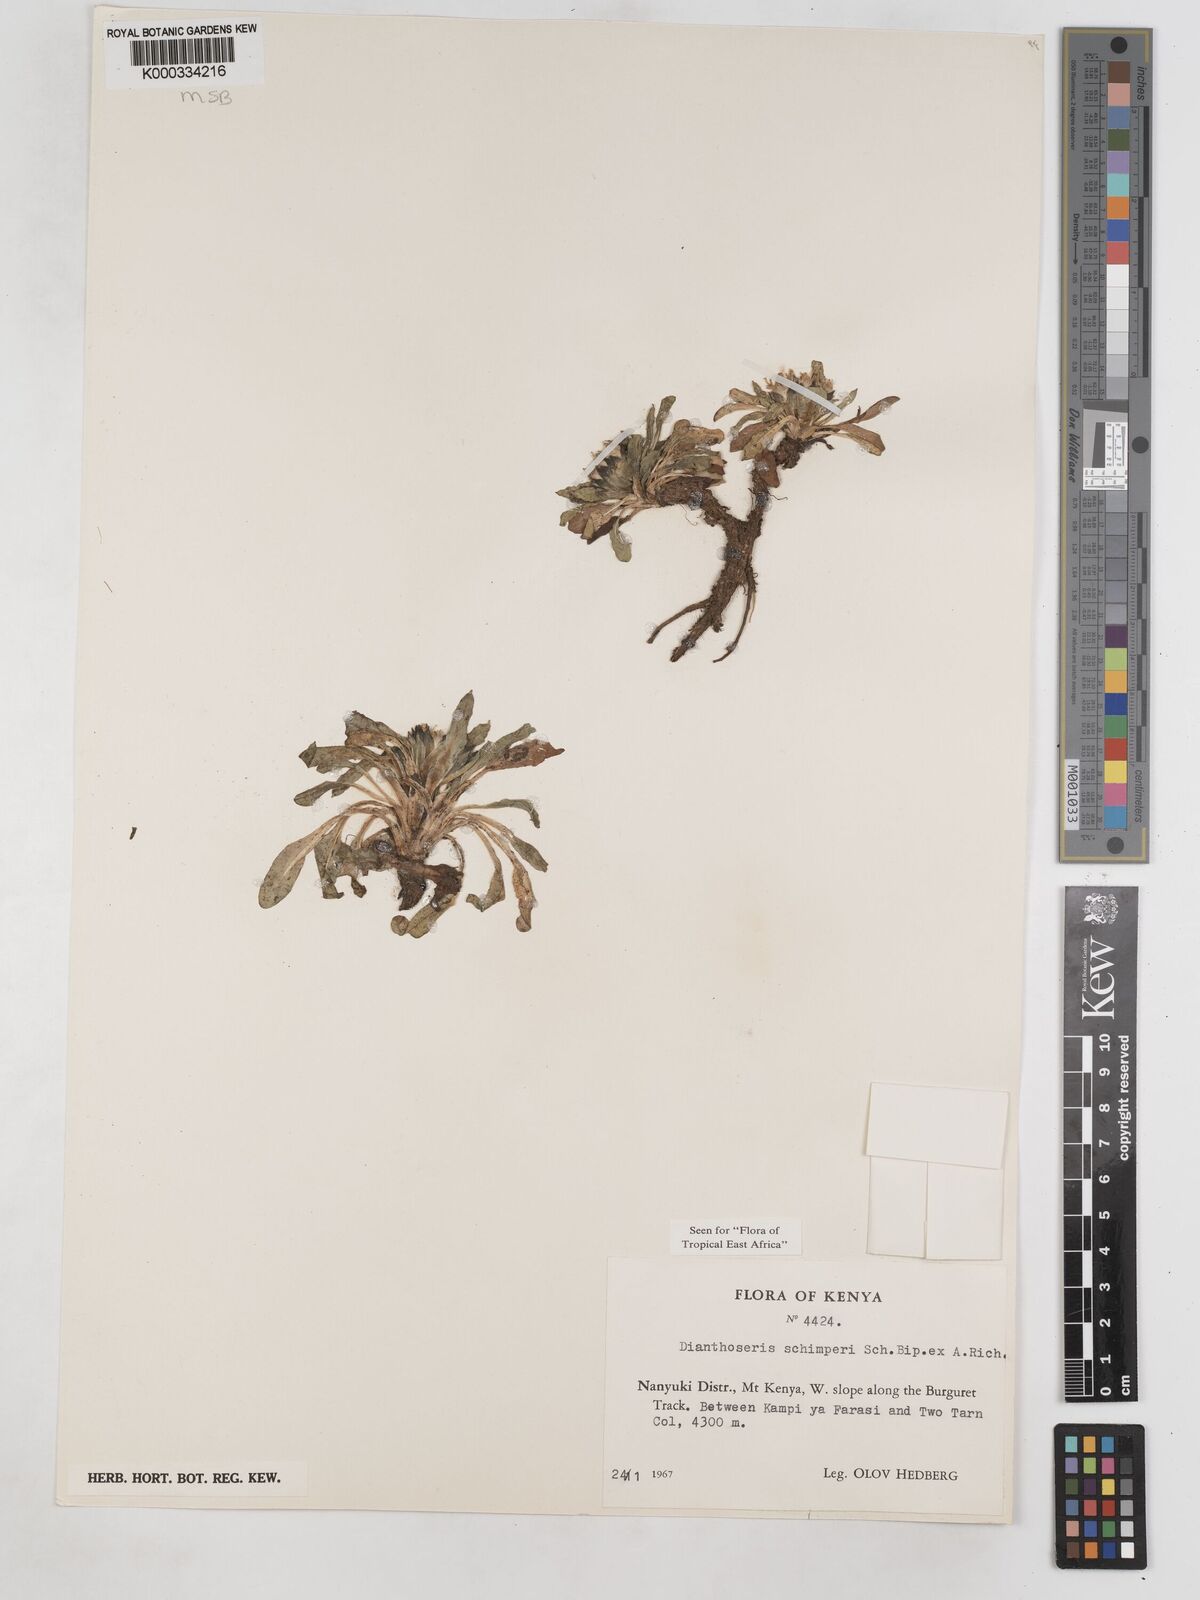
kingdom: Plantae
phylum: Tracheophyta
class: Magnoliopsida
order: Asterales
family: Asteraceae
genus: Crepis
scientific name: Crepis dianthoseris
